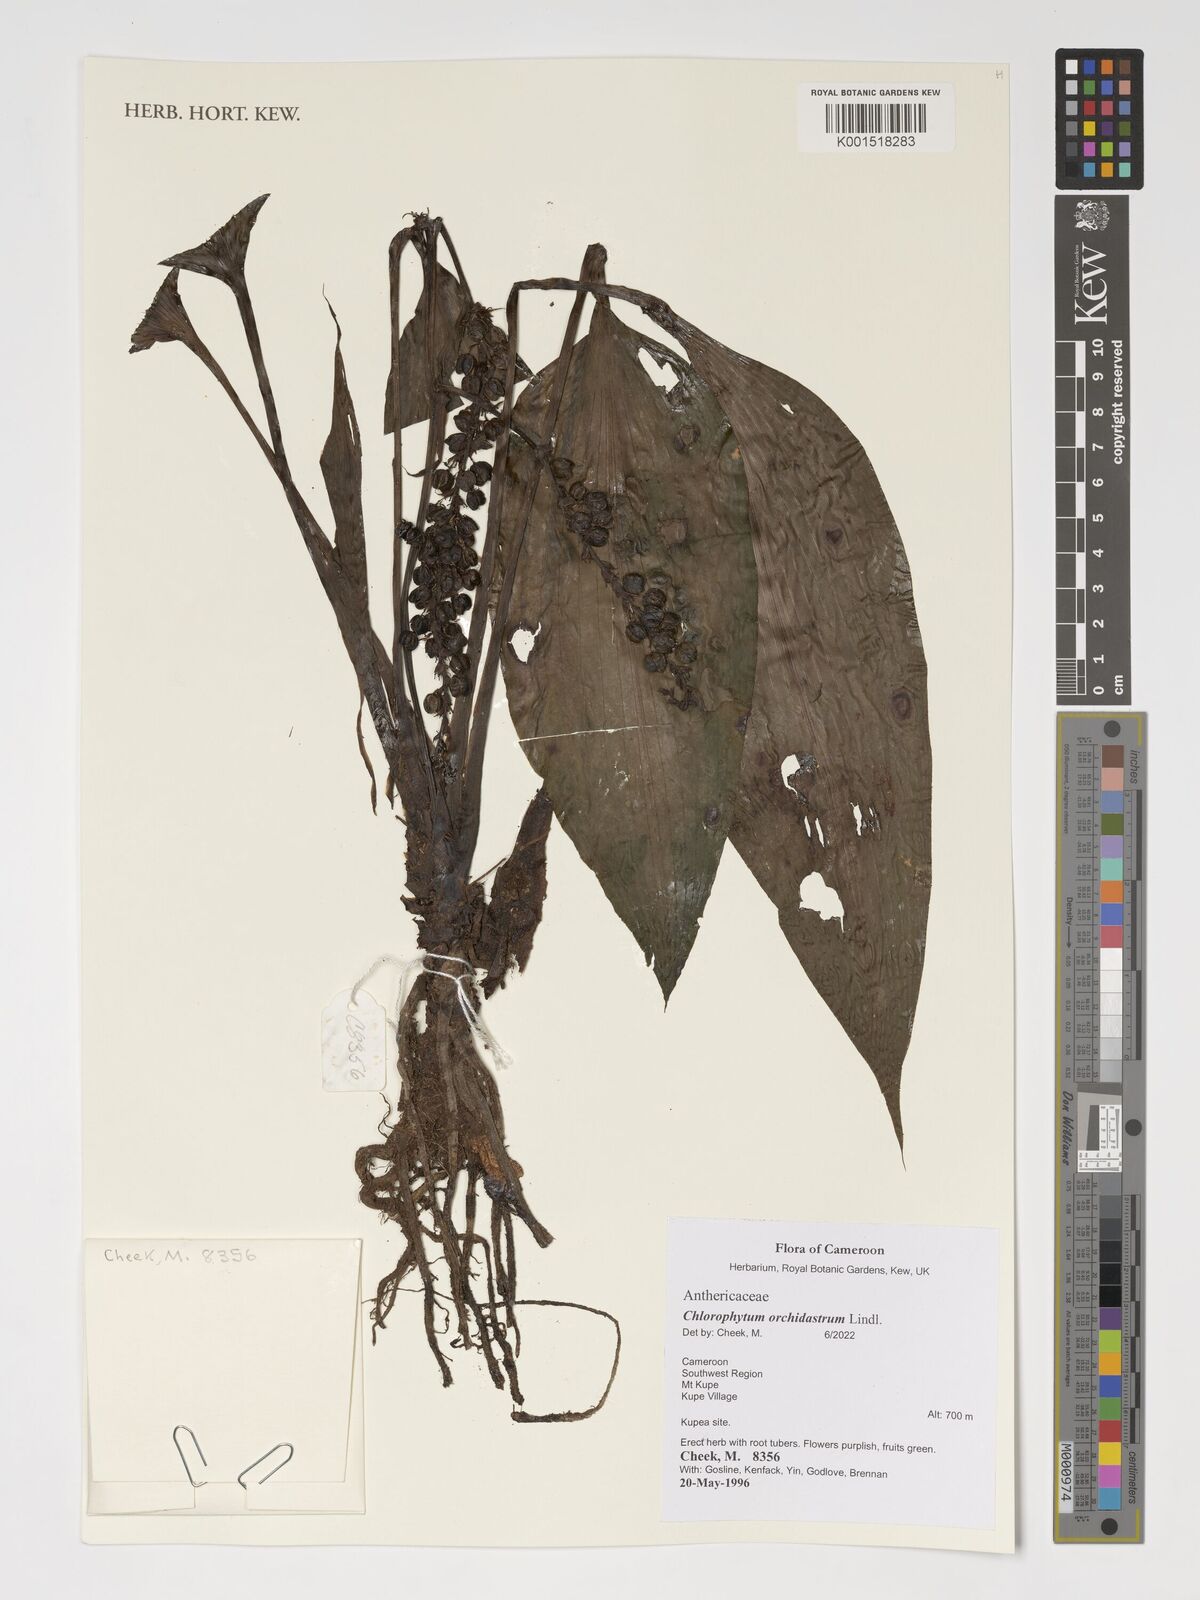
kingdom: Plantae
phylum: Tracheophyta
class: Liliopsida
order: Asparagales
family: Asparagaceae
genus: Chlorophytum
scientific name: Chlorophytum orchidastrum
